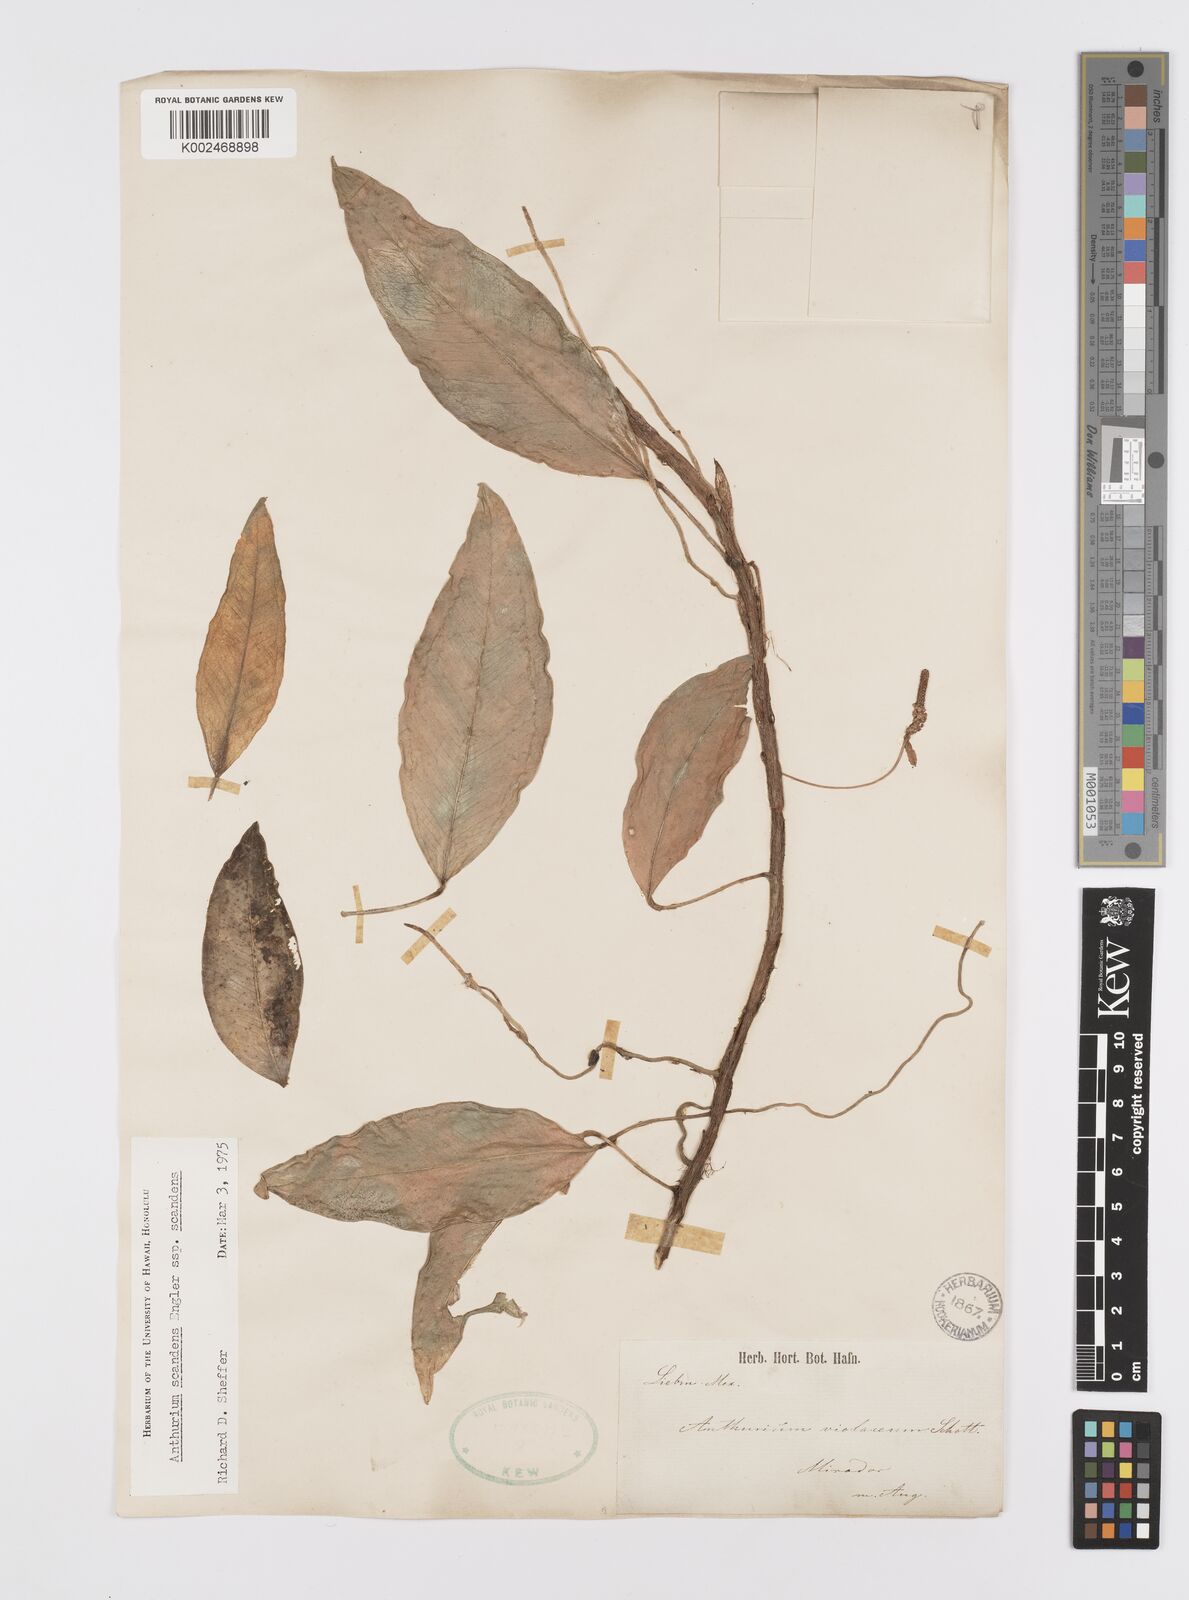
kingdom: Plantae
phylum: Tracheophyta
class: Liliopsida
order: Alismatales
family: Araceae
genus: Anthurium
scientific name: Anthurium scandens
